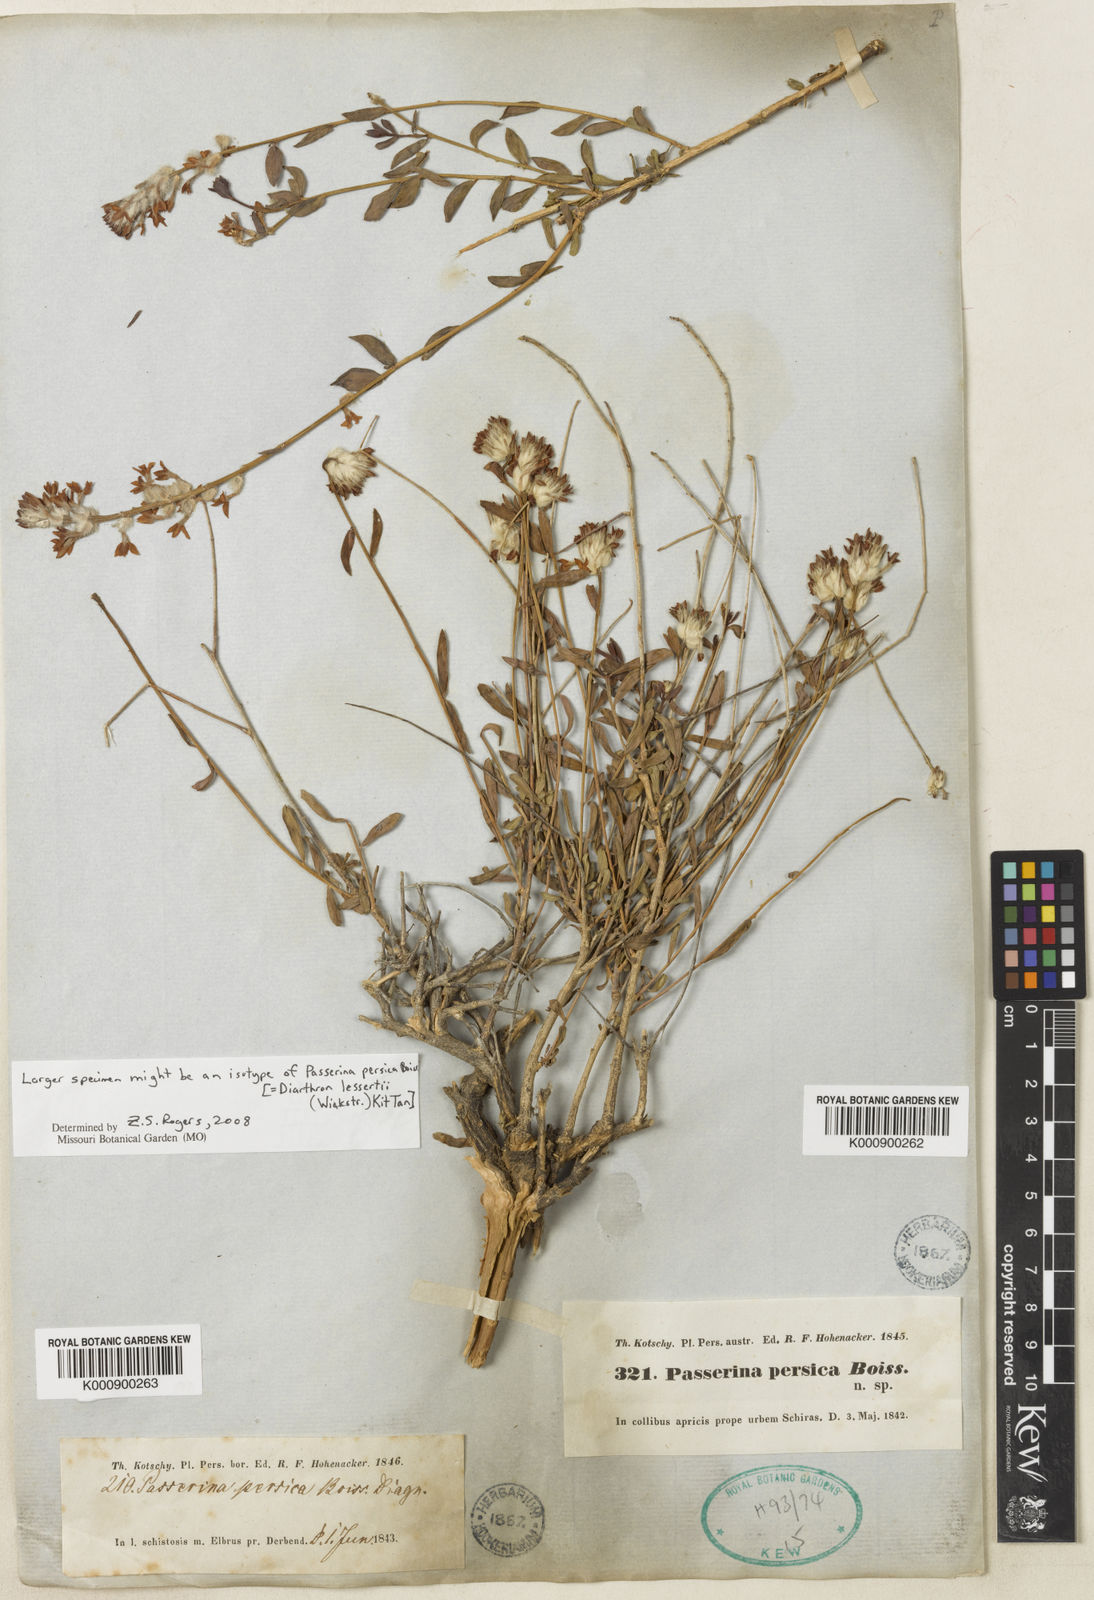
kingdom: Plantae
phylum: Tracheophyta
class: Magnoliopsida
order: Malvales
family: Thymelaeaceae
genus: Diarthron
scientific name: Diarthron lessertii
